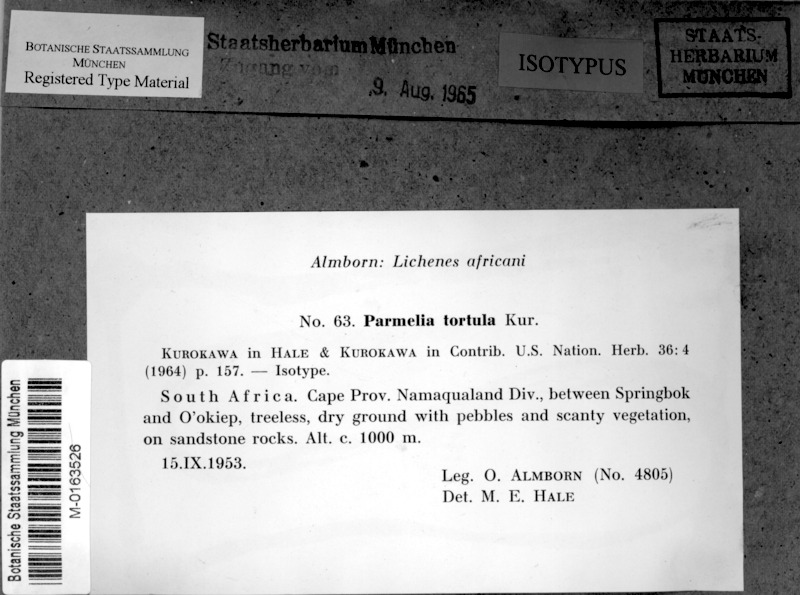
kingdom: Fungi
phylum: Ascomycota
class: Lecanoromycetes
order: Lecanorales
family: Parmeliaceae
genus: Xanthoparmelia
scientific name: Xanthoparmelia tortula
